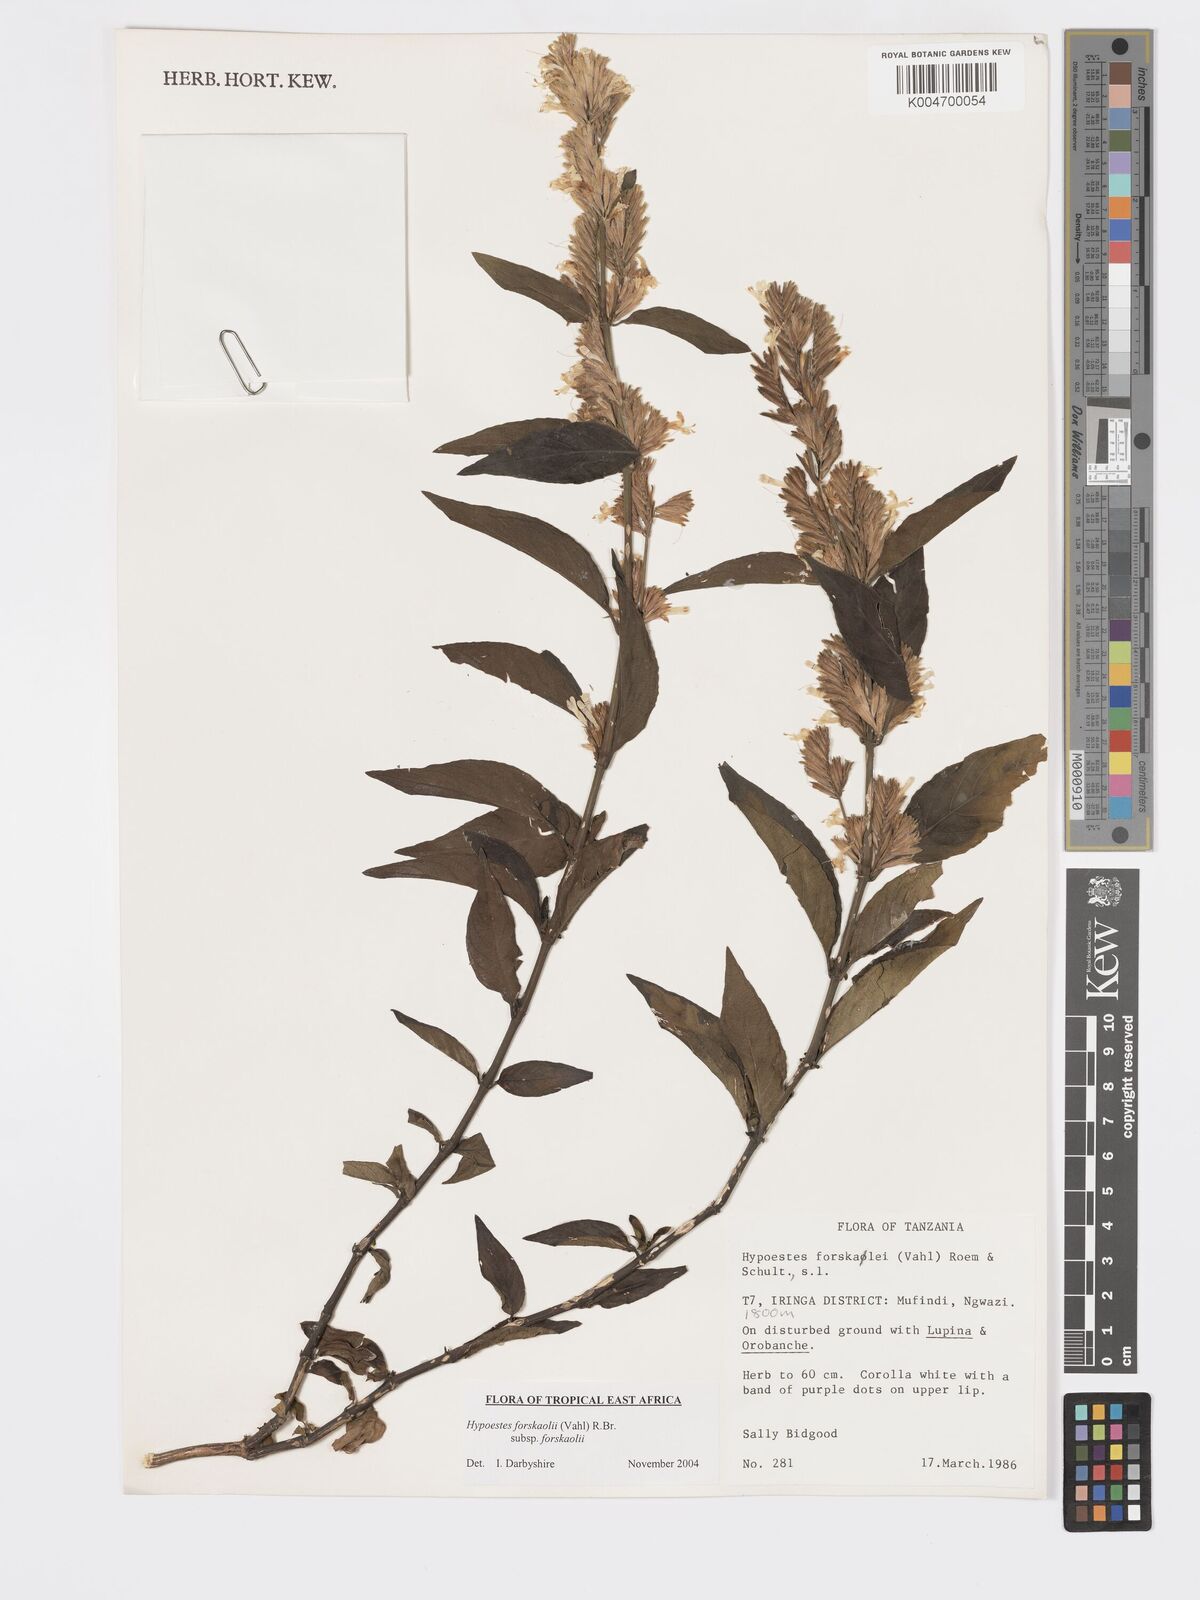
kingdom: Plantae
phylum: Tracheophyta
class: Magnoliopsida
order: Lamiales
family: Acanthaceae
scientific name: Acanthaceae
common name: Acanthaceae
